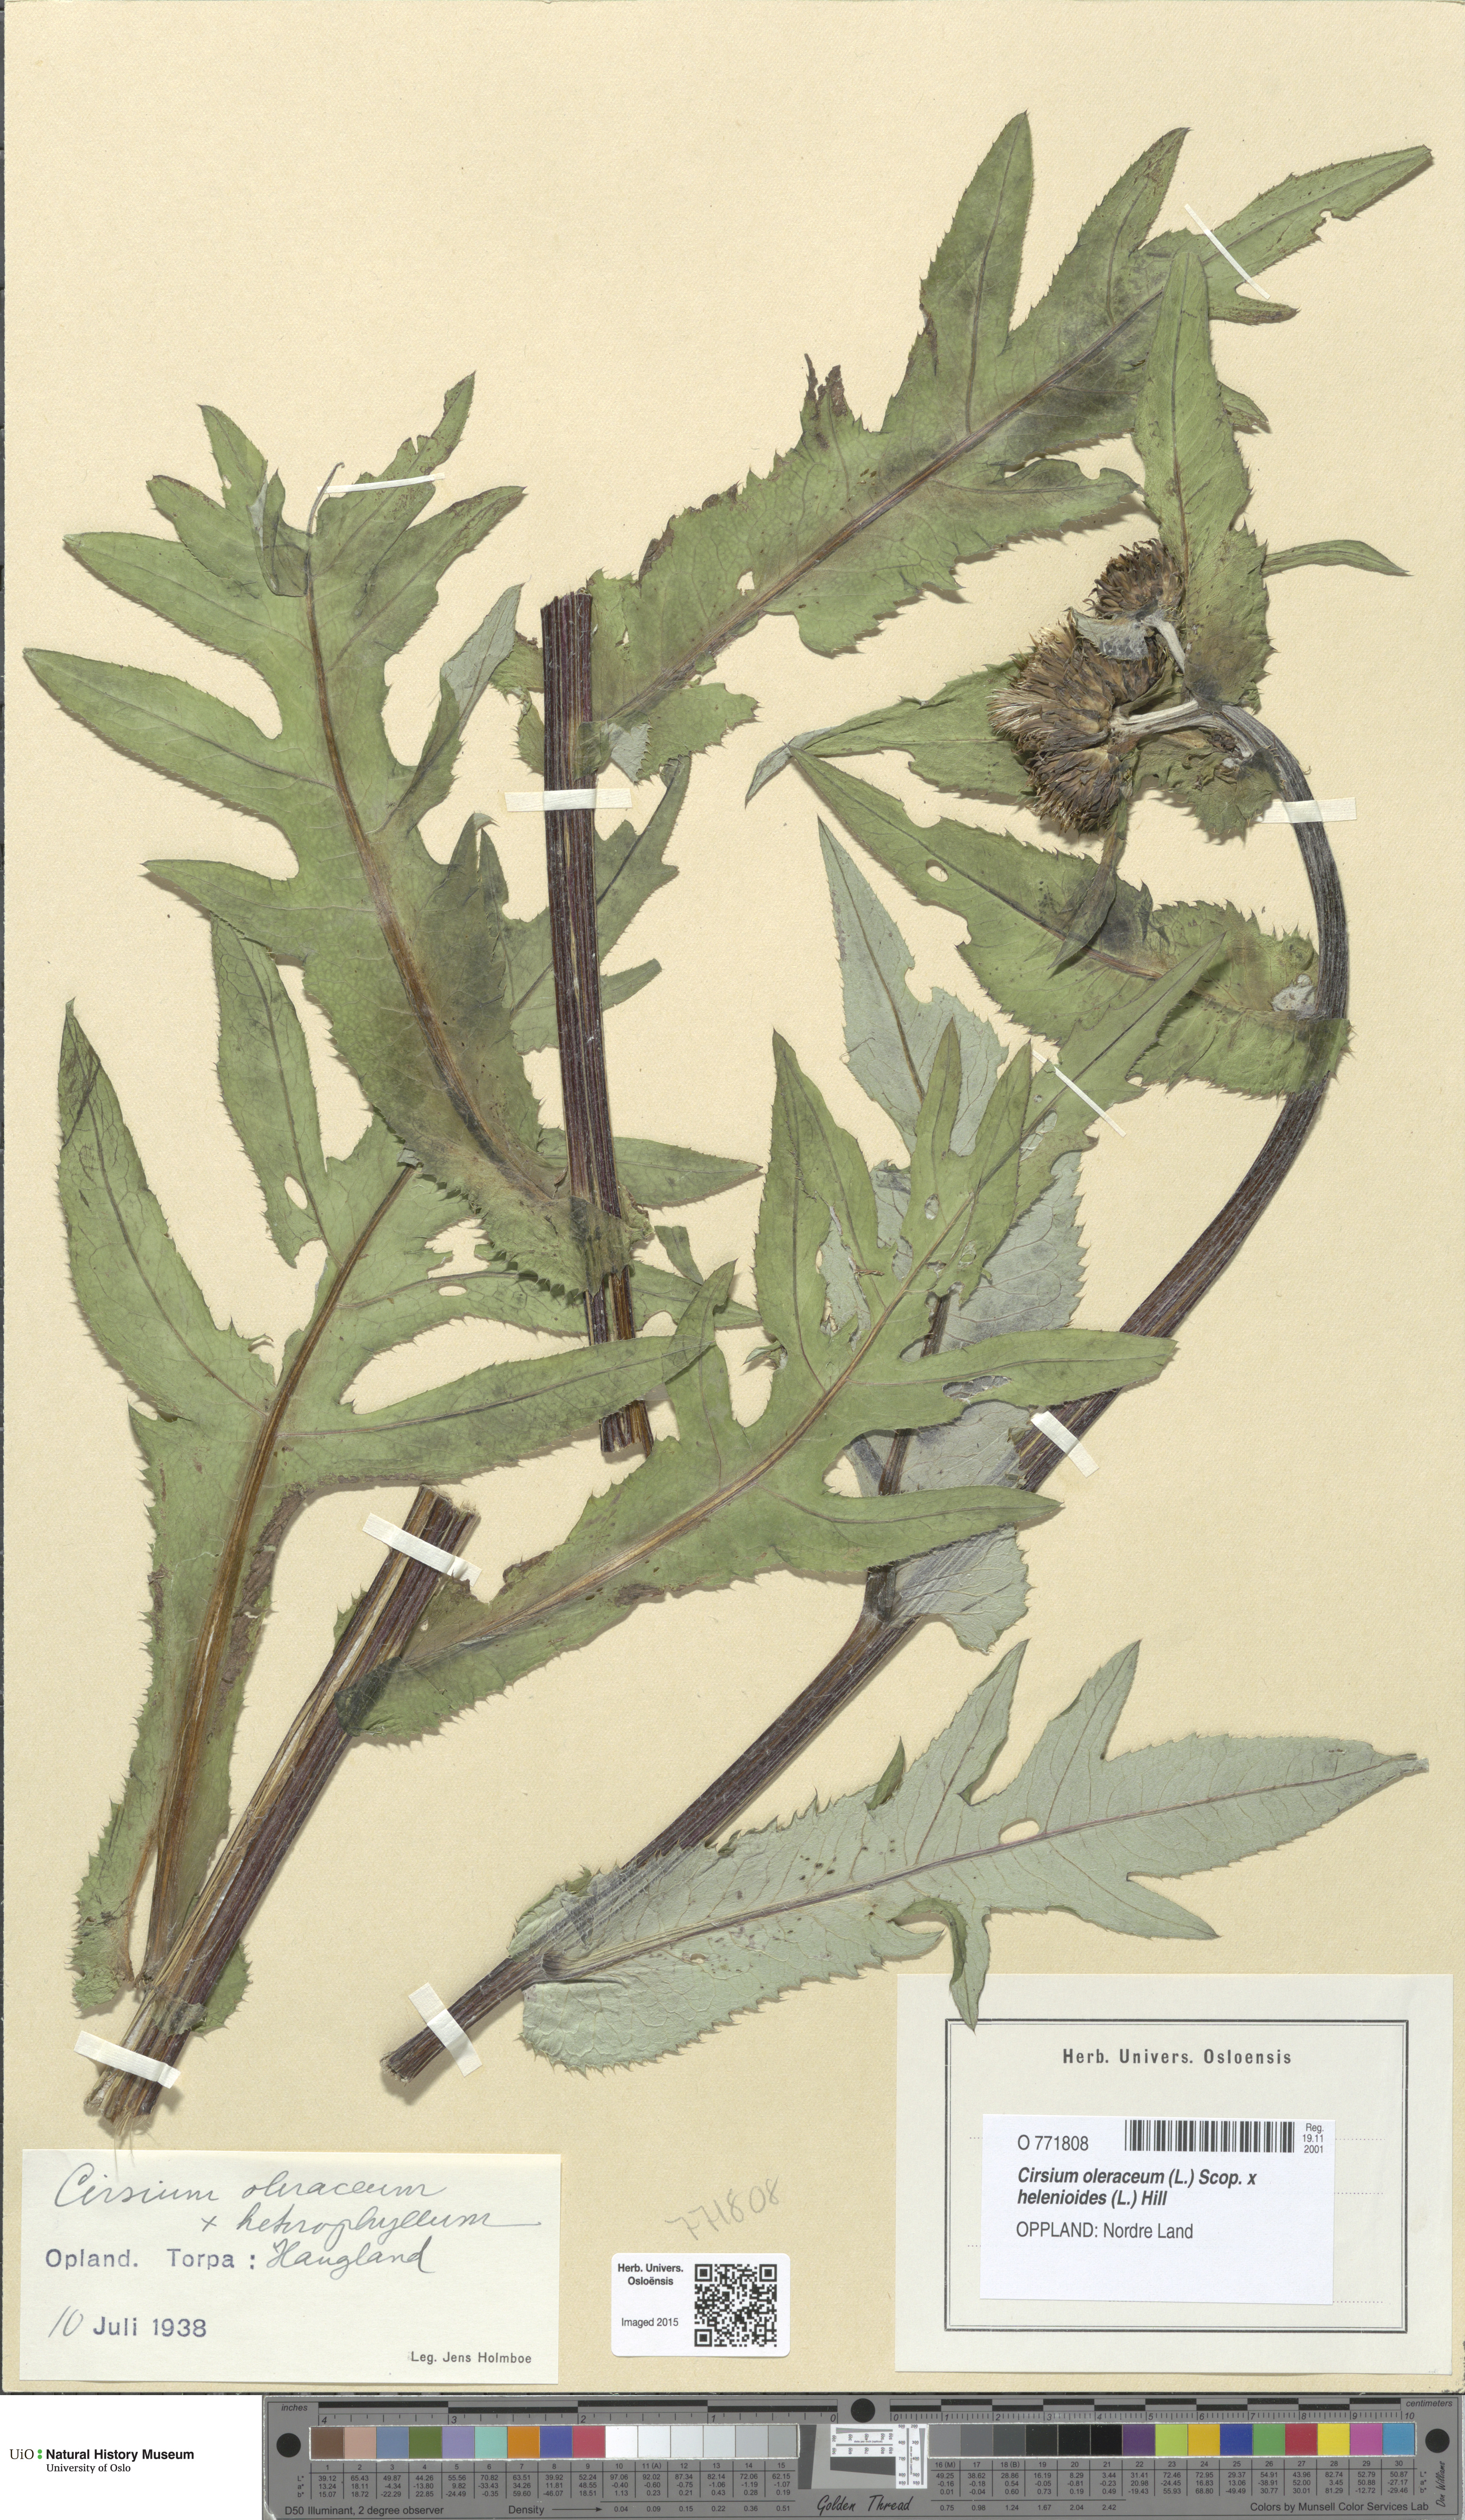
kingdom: Plantae
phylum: Tracheophyta
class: Magnoliopsida
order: Asterales
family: Asteraceae
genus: Cirsium
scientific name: Cirsium
